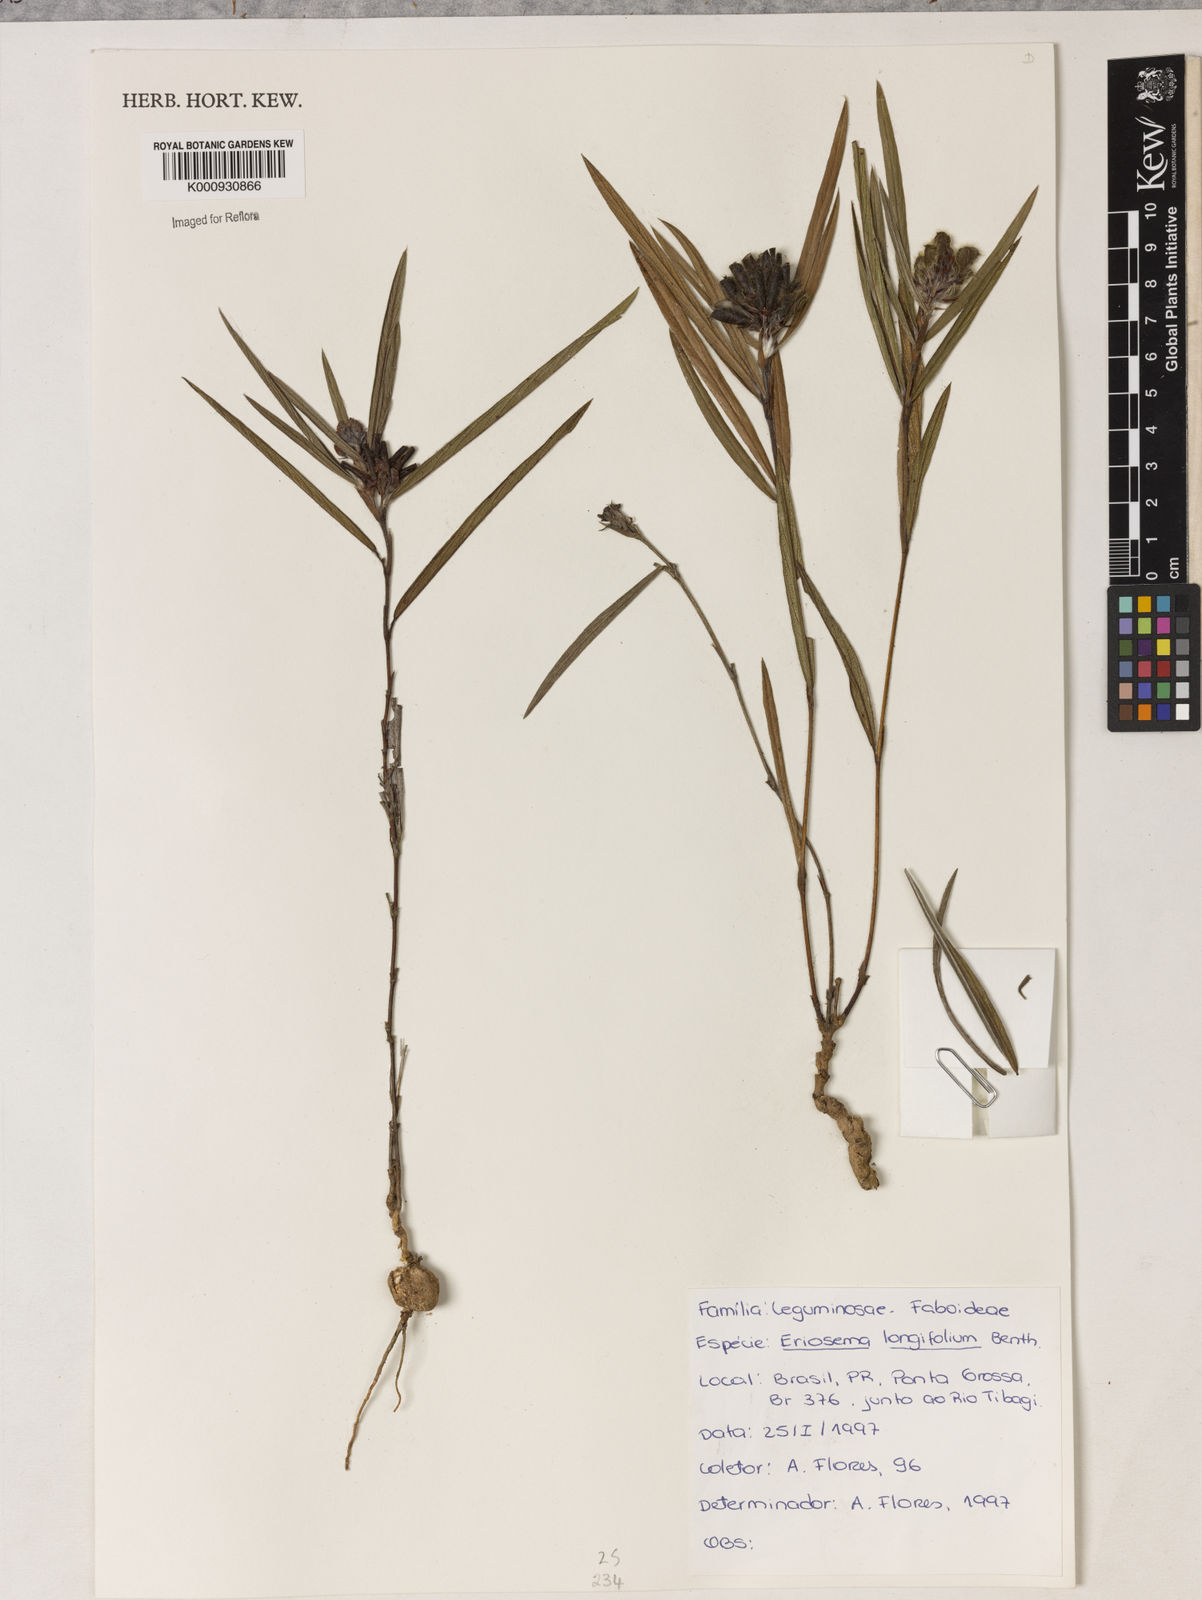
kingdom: Plantae
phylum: Tracheophyta
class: Magnoliopsida
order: Fabales
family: Fabaceae
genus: Eriosema
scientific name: Eriosema longifolium
